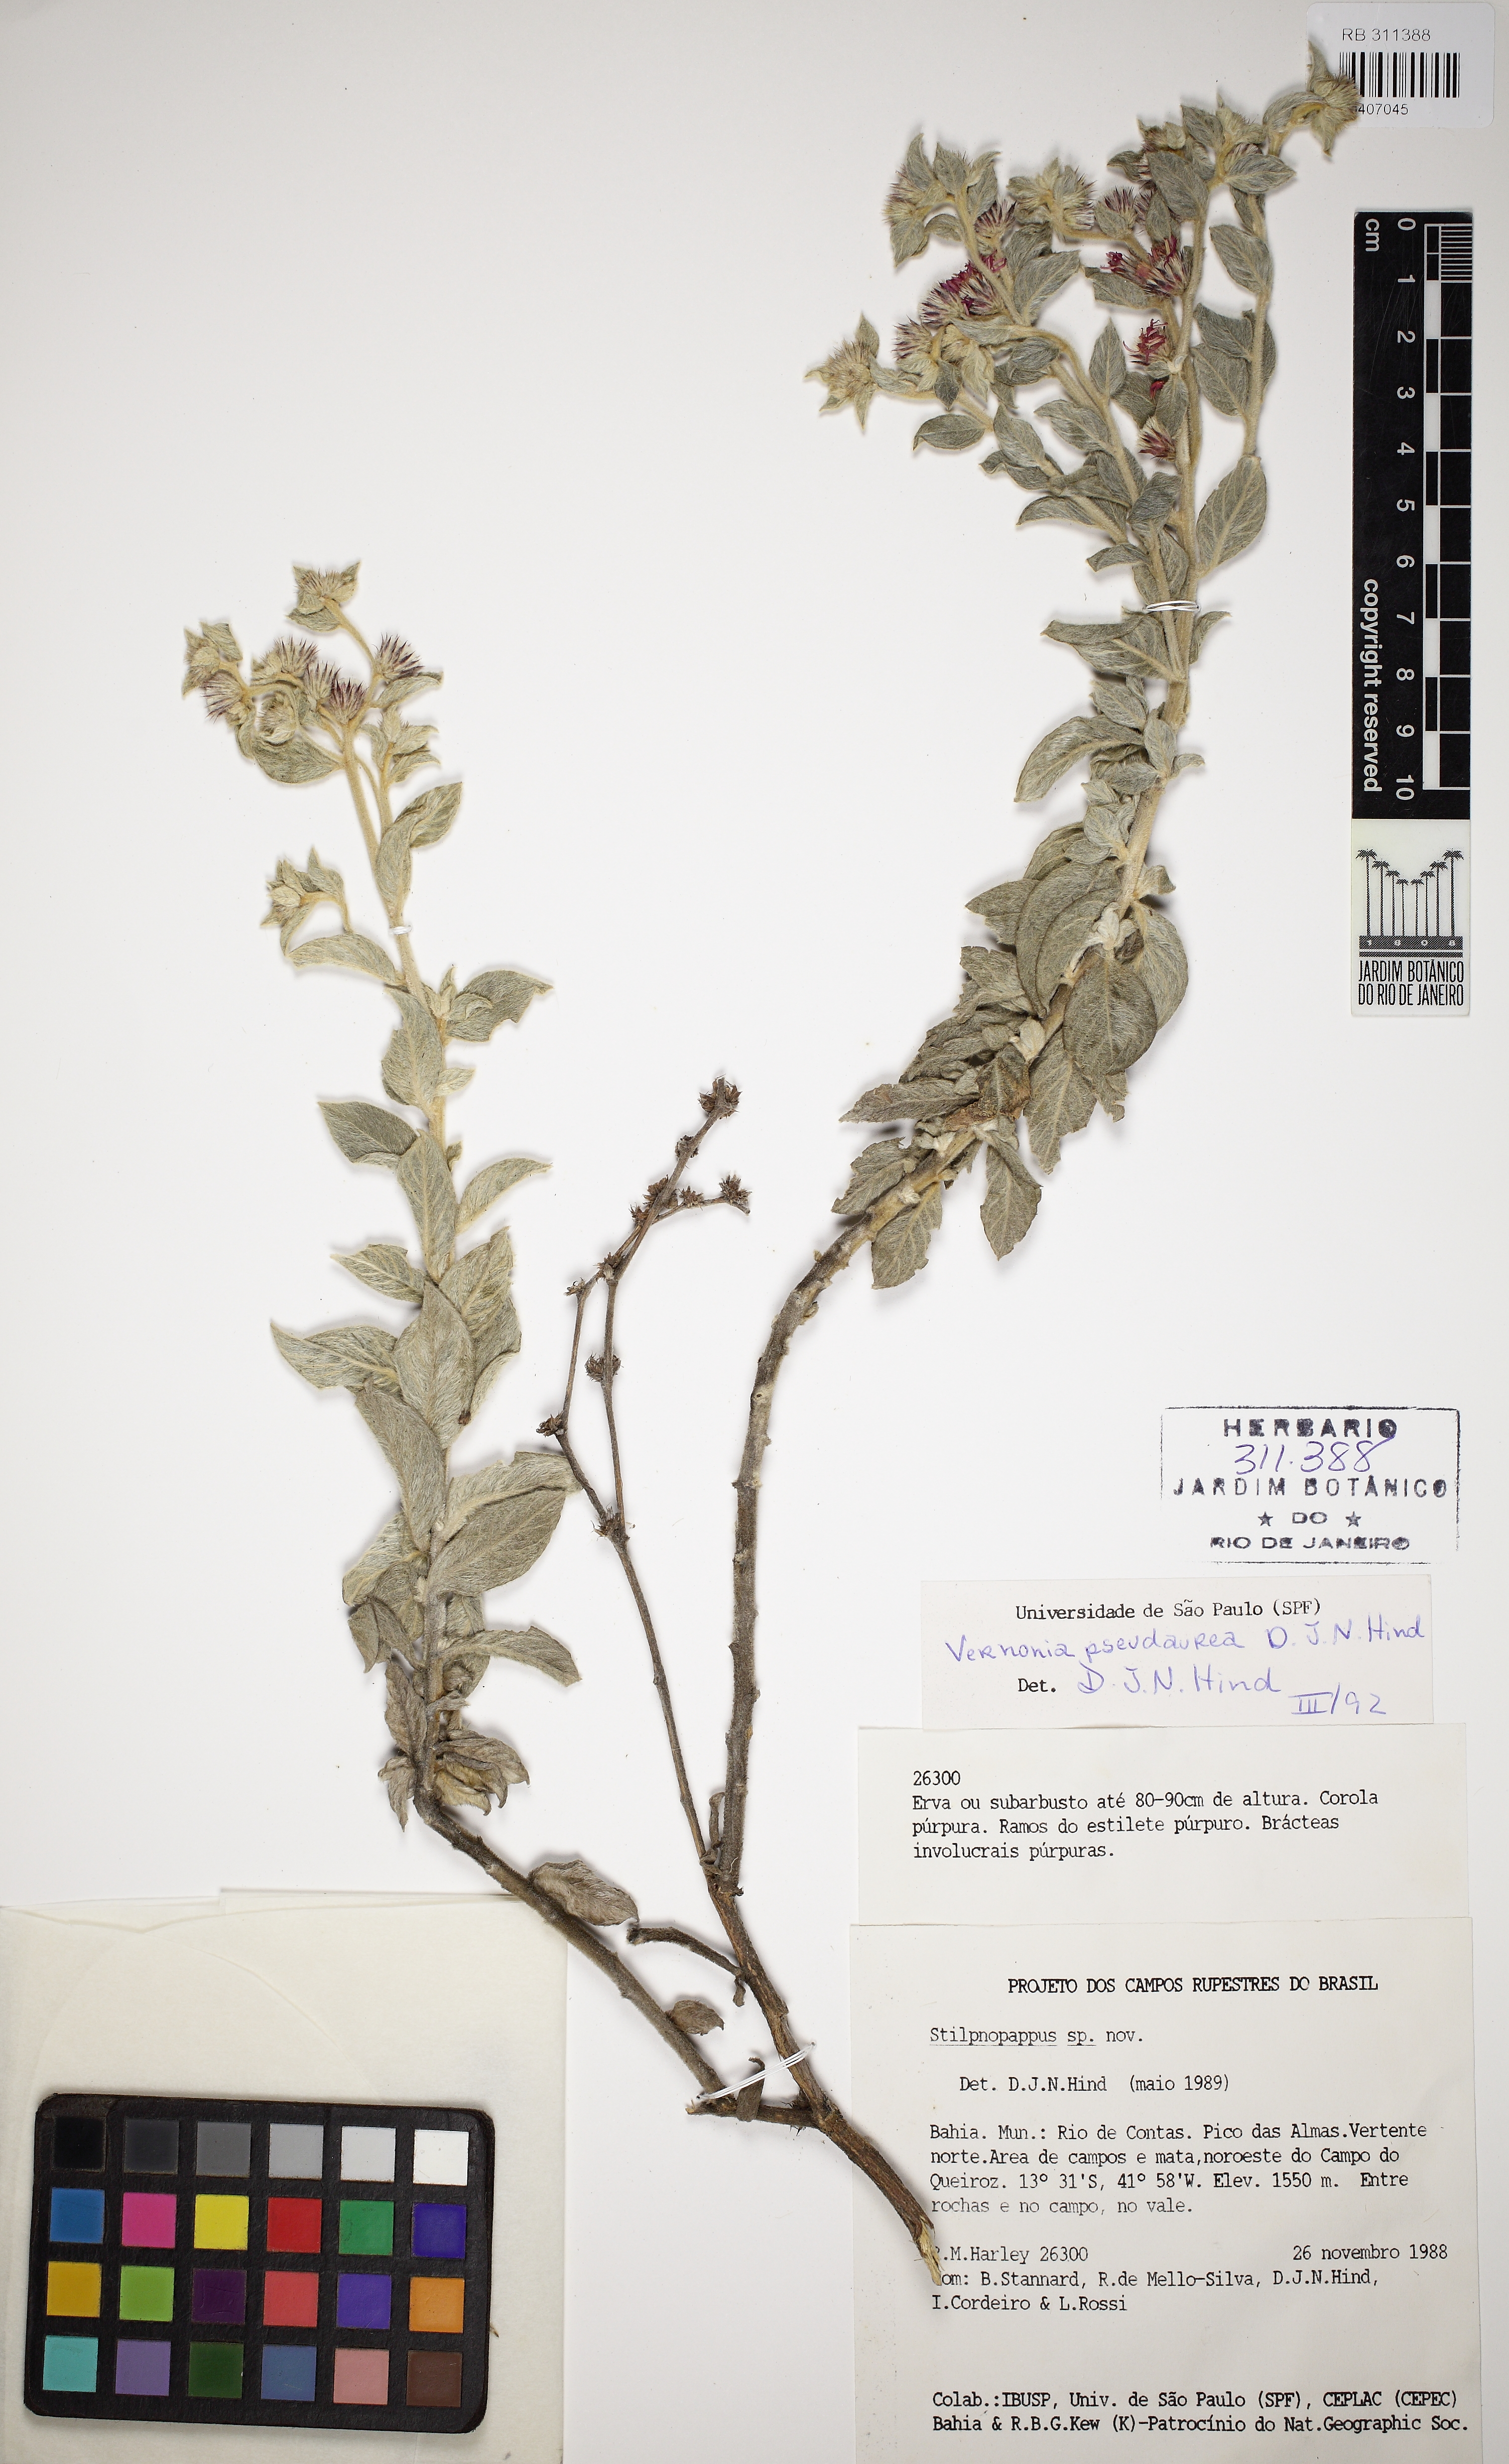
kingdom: Plantae
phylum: Tracheophyta
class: Magnoliopsida
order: Asterales
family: Asteraceae
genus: Lepidaploa
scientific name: Lepidaploa pseudaurea
